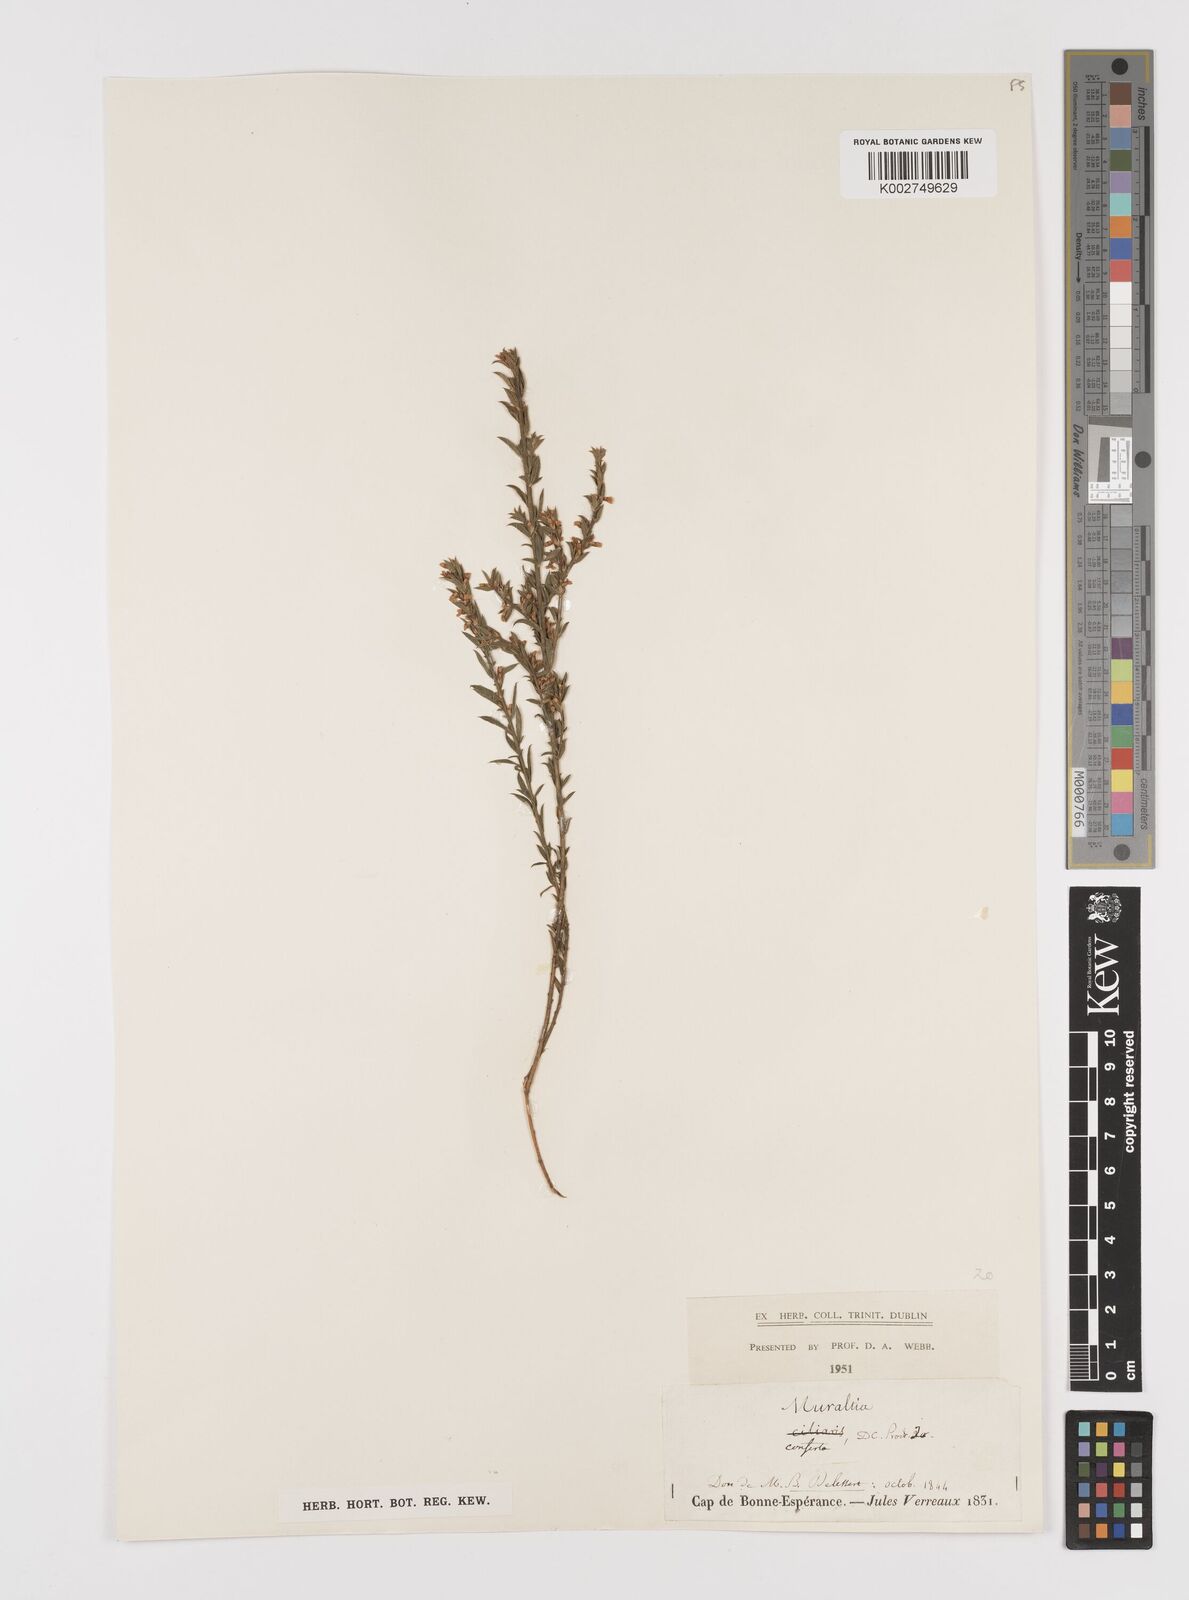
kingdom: Plantae
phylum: Tracheophyta
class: Magnoliopsida
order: Fabales
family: Polygalaceae
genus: Muraltia
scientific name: Muraltia alopecuroides
